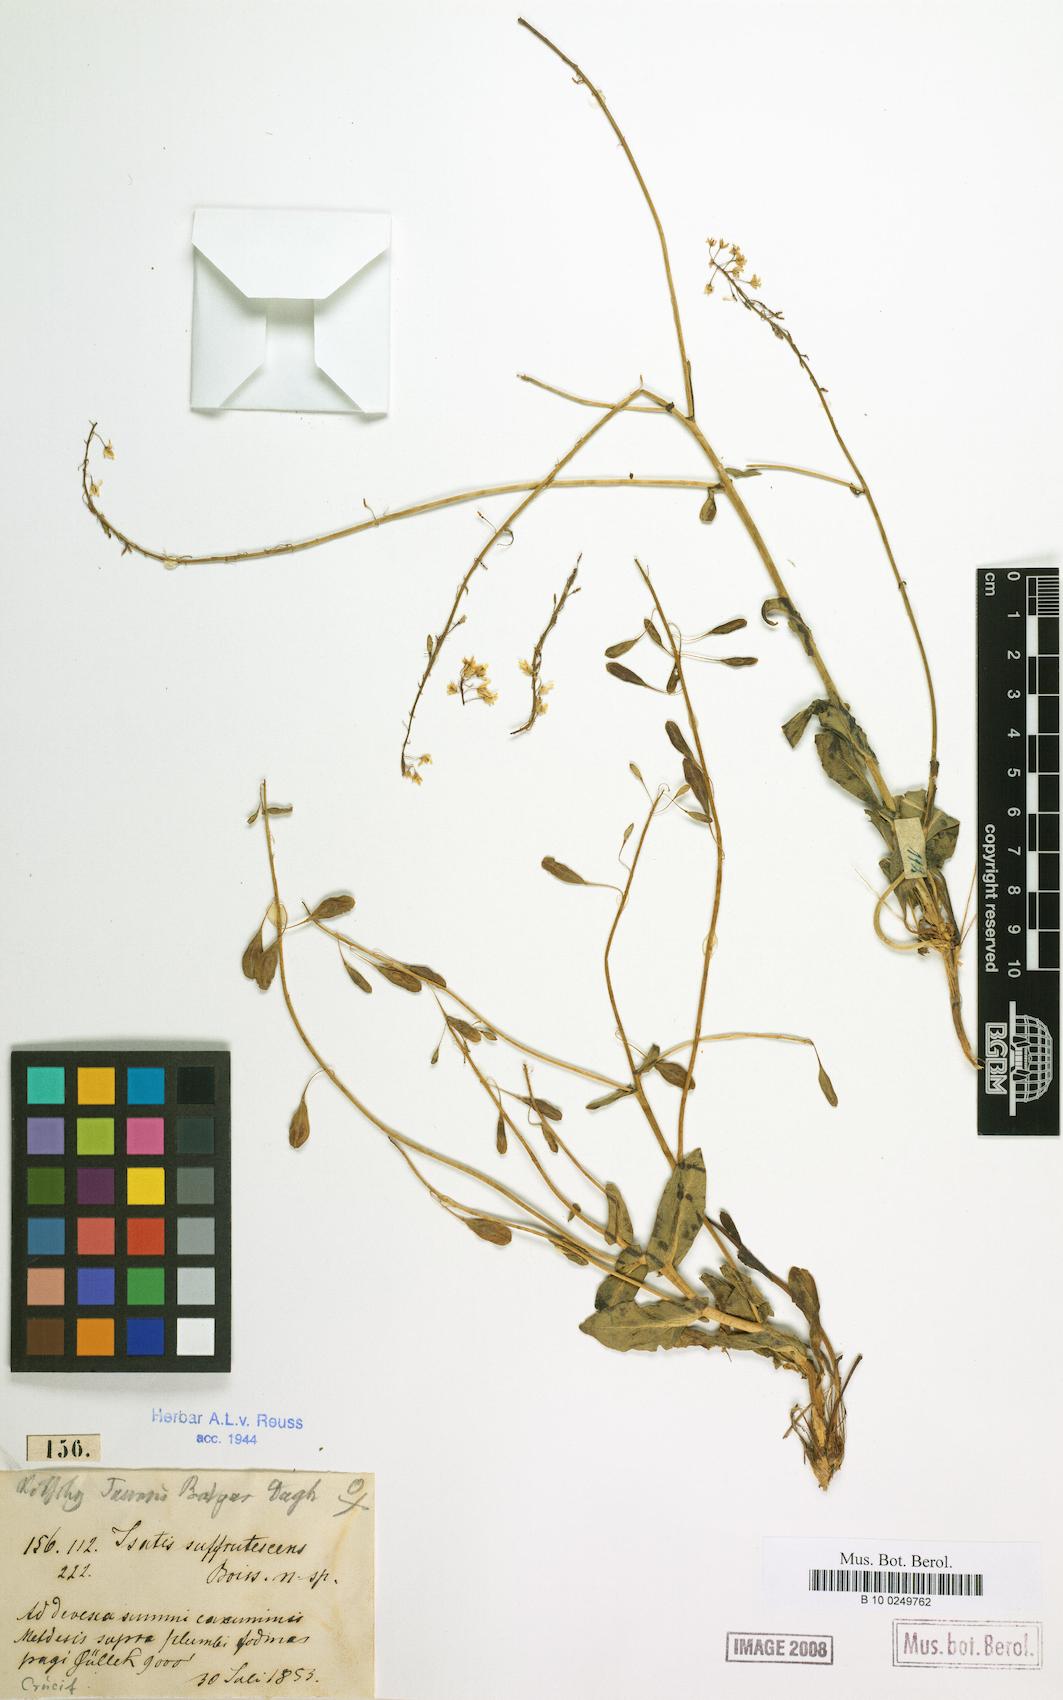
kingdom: Plantae
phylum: Tracheophyta
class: Magnoliopsida
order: Brassicales
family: Brassicaceae
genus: Isatis
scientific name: Isatis suffrutescens
